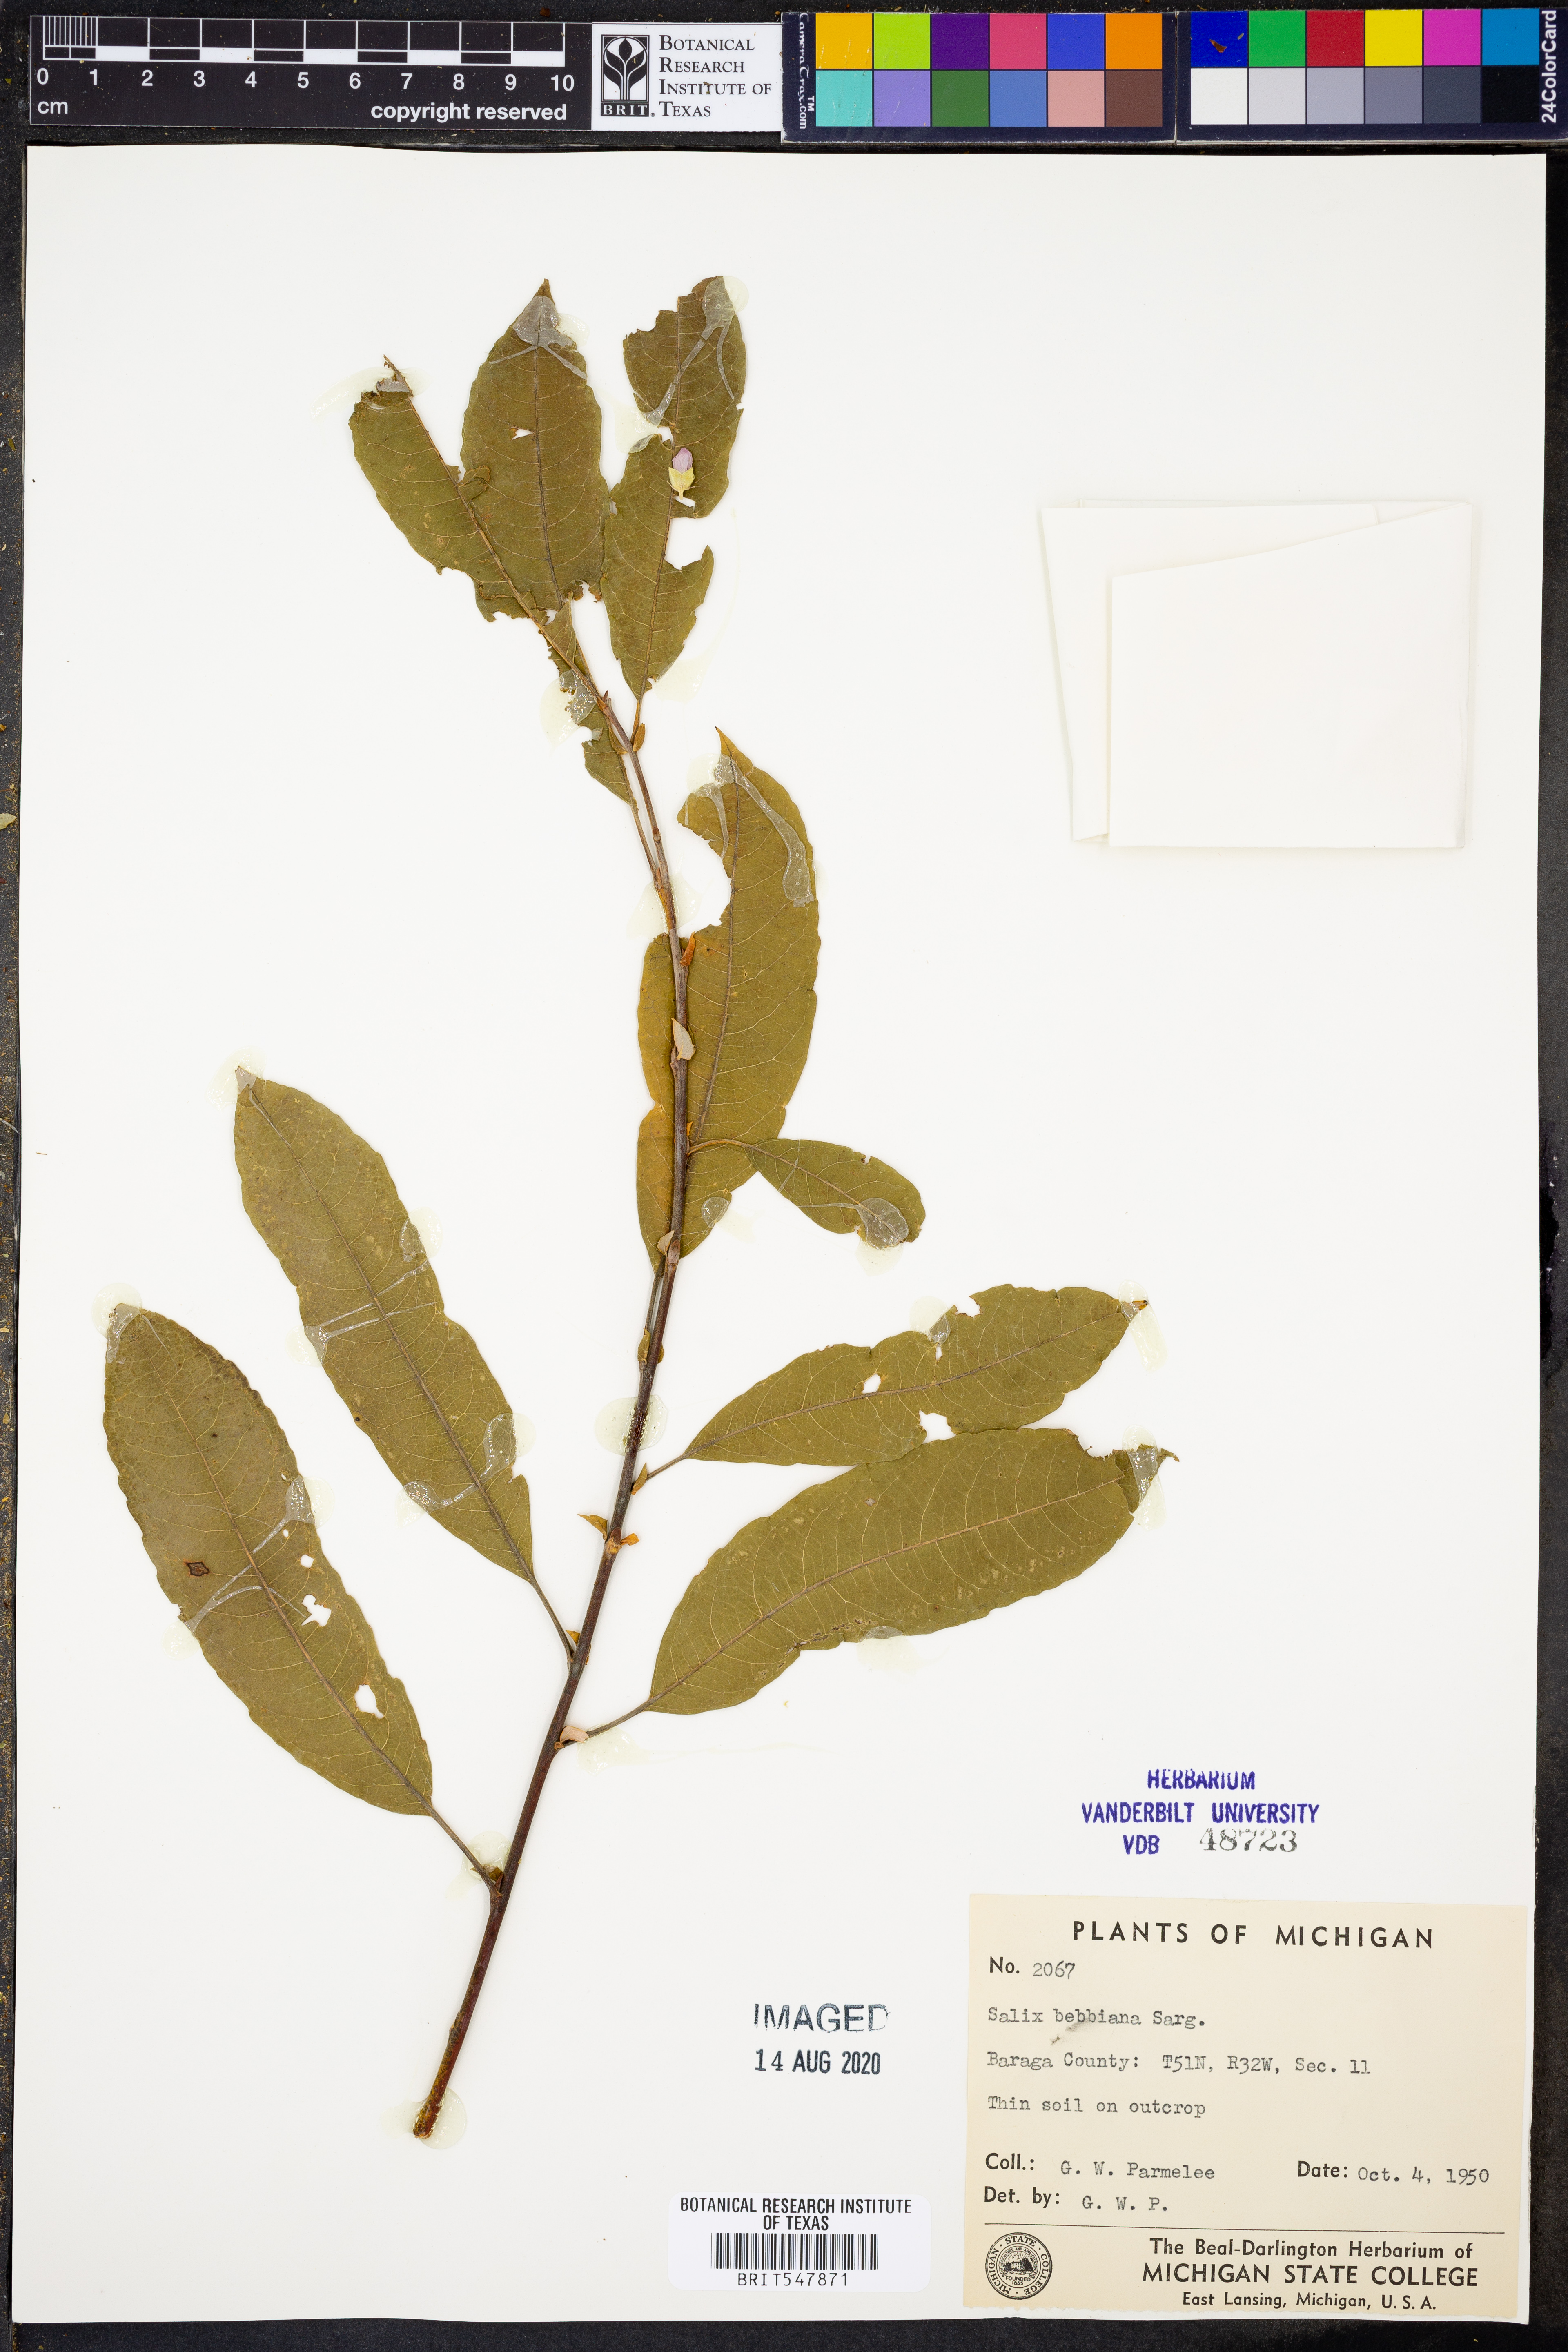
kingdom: Plantae
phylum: Tracheophyta
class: Magnoliopsida
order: Malpighiales
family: Salicaceae
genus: Salix
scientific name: Salix bebbiana
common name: Bebb's willow
